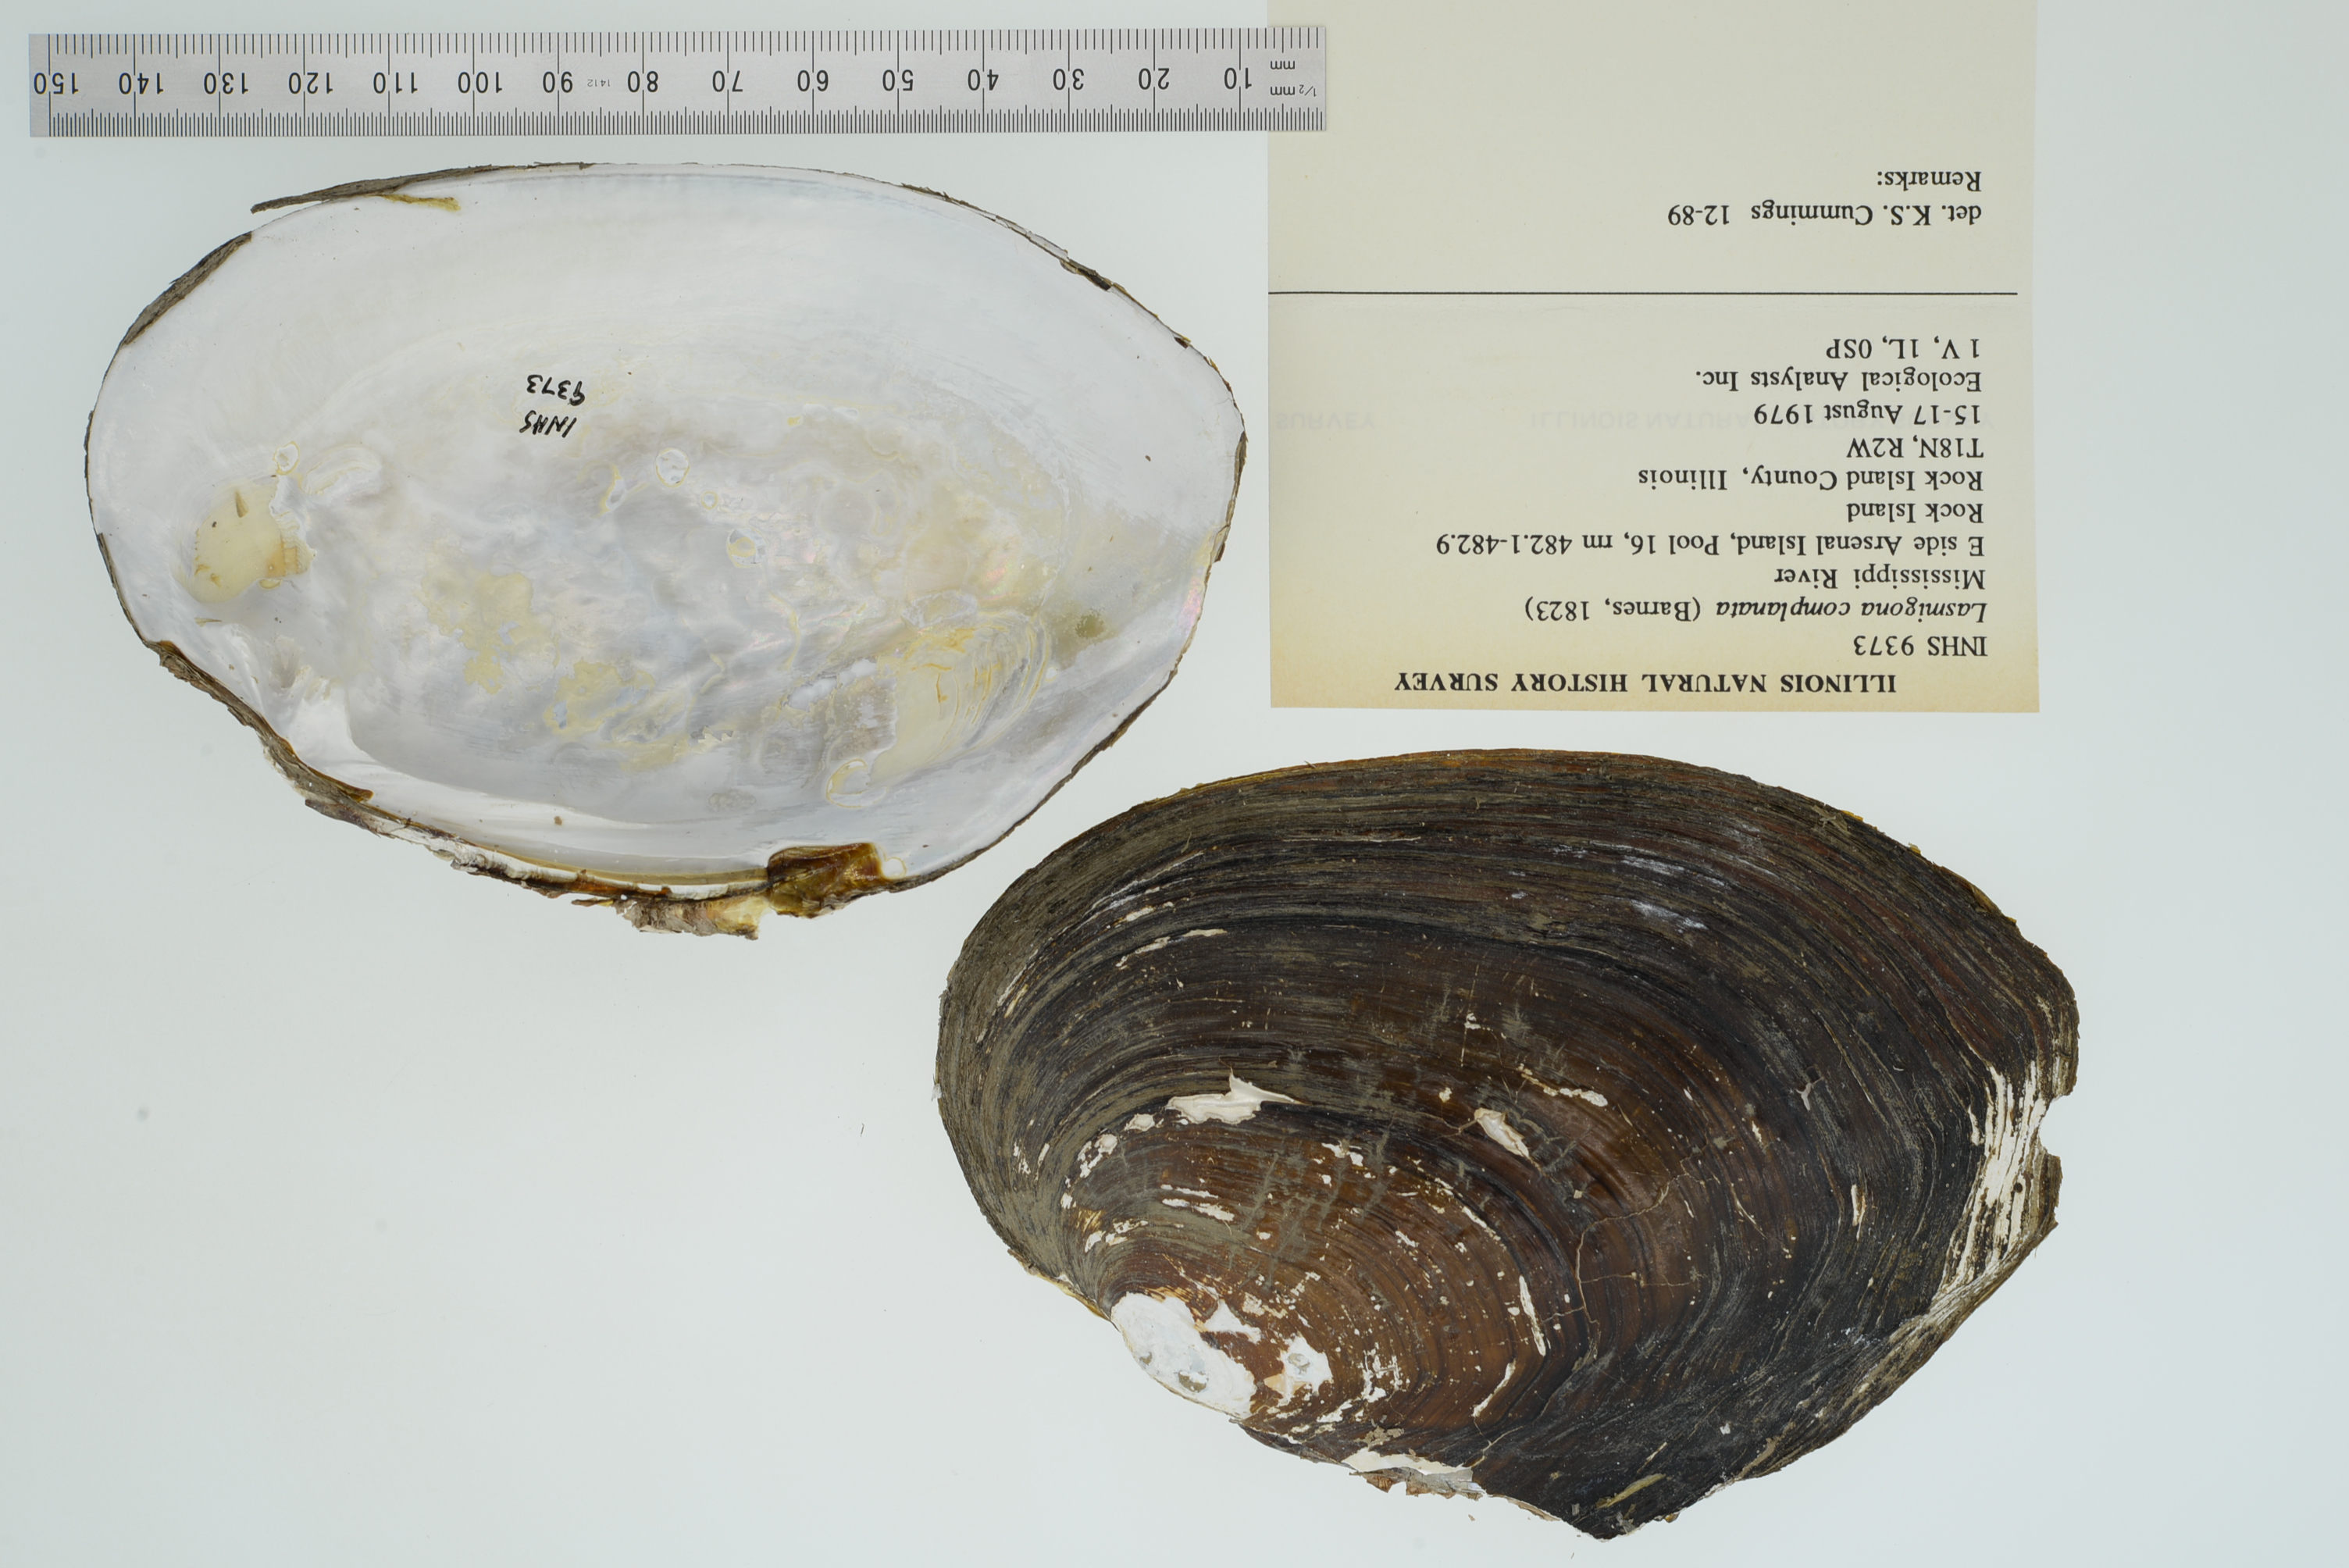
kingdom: Animalia
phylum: Mollusca
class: Bivalvia
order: Unionida
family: Unionidae
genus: Lasmigona
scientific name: Lasmigona complanata
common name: White heelsplitter
